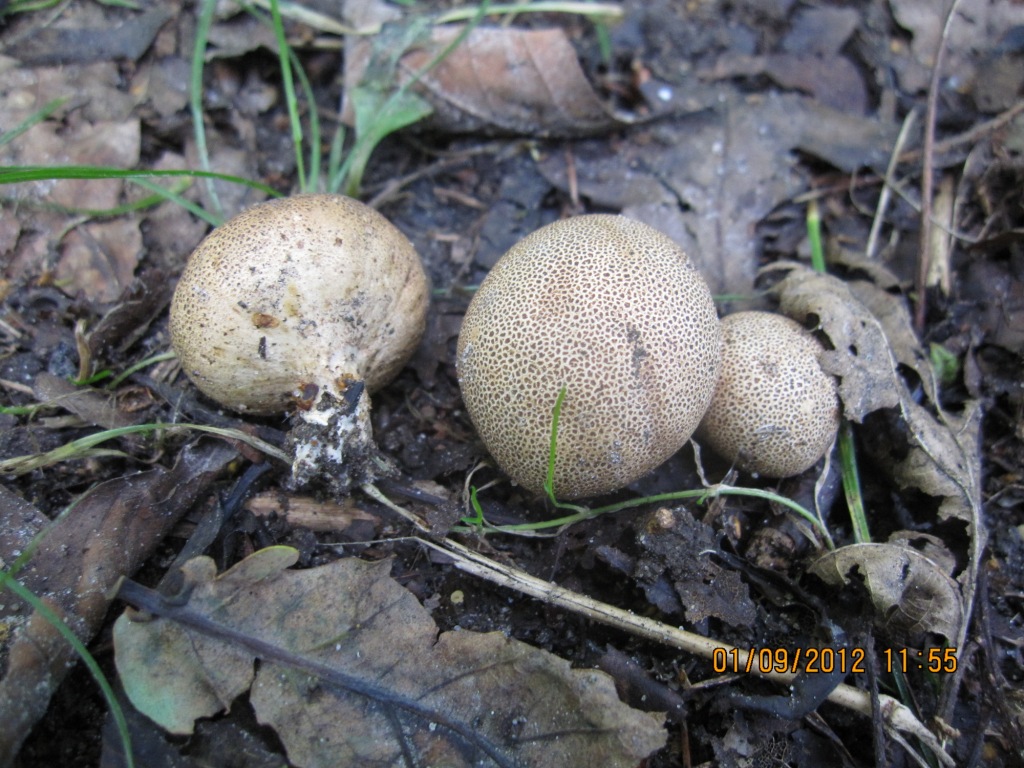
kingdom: Fungi
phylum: Basidiomycota
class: Agaricomycetes
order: Boletales
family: Sclerodermataceae
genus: Scleroderma
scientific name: Scleroderma areolatum
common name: plettet bruskbold
